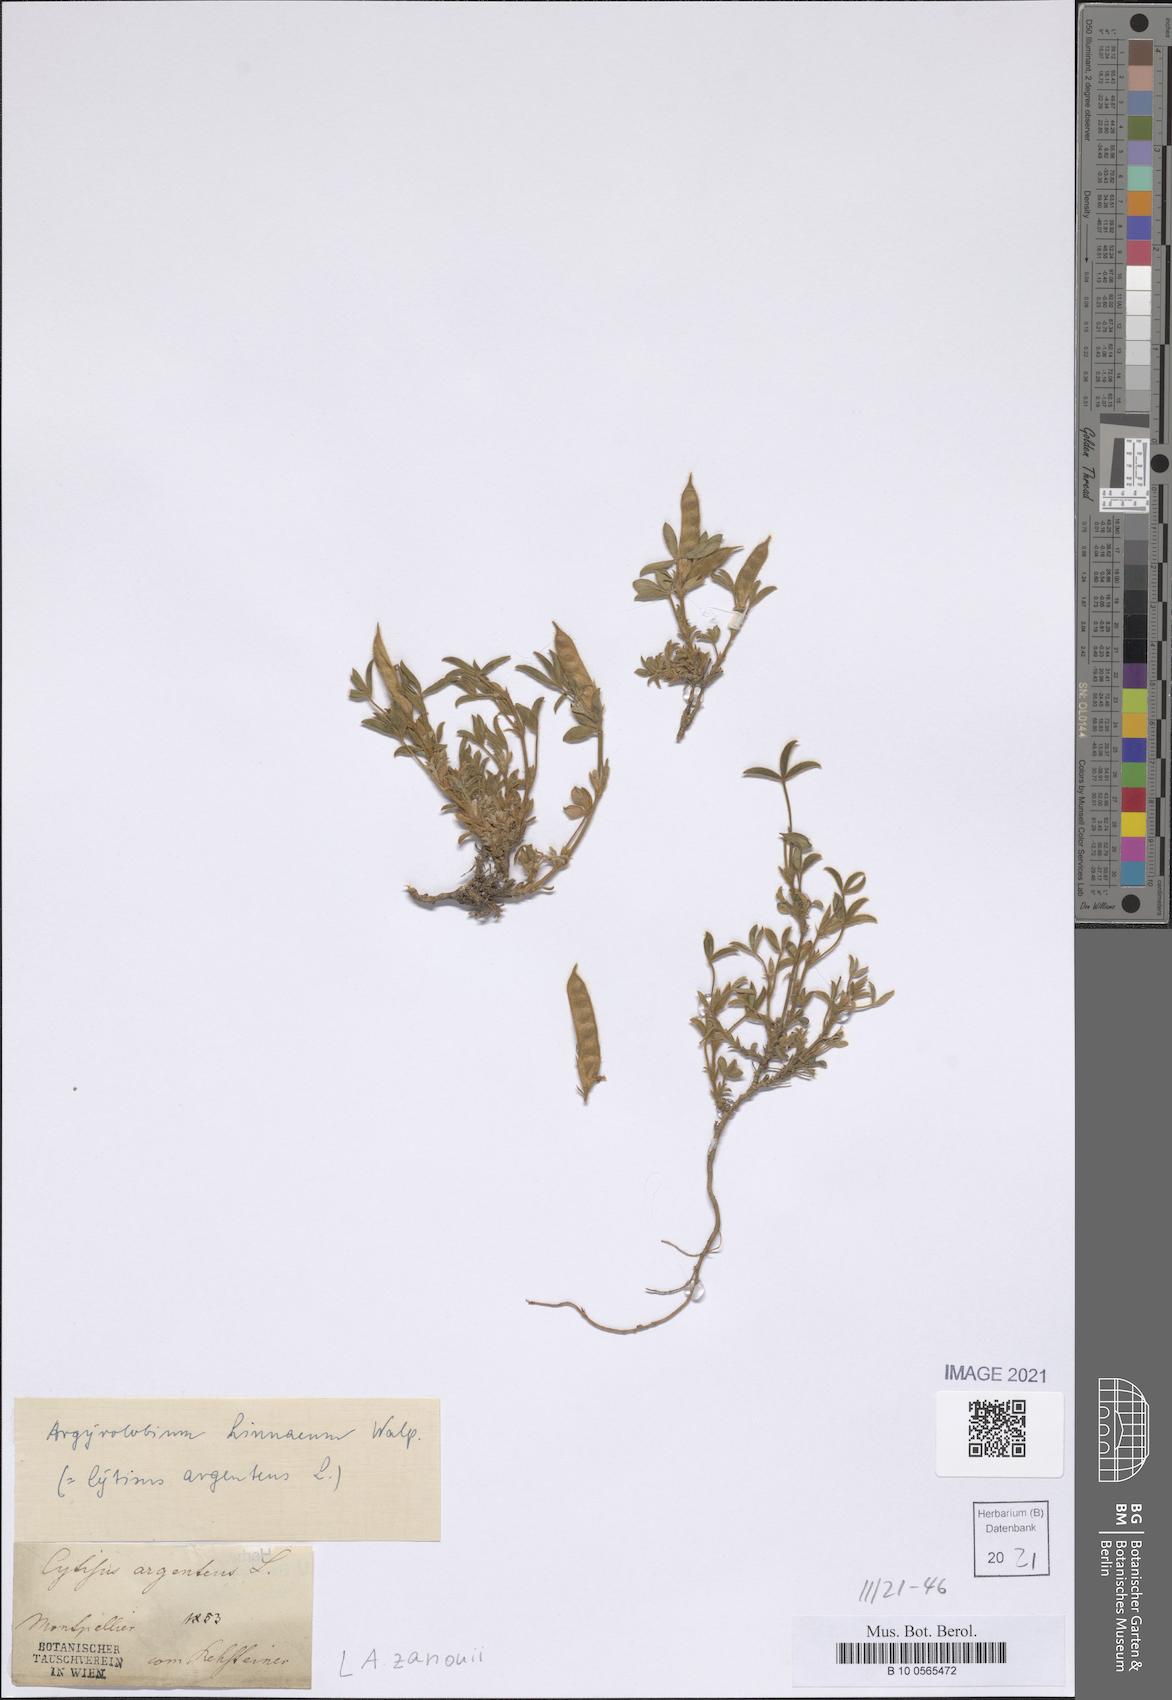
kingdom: Plantae
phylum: Tracheophyta
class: Magnoliopsida
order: Fabales
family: Fabaceae
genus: Argyrolobium
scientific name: Argyrolobium zanonii
